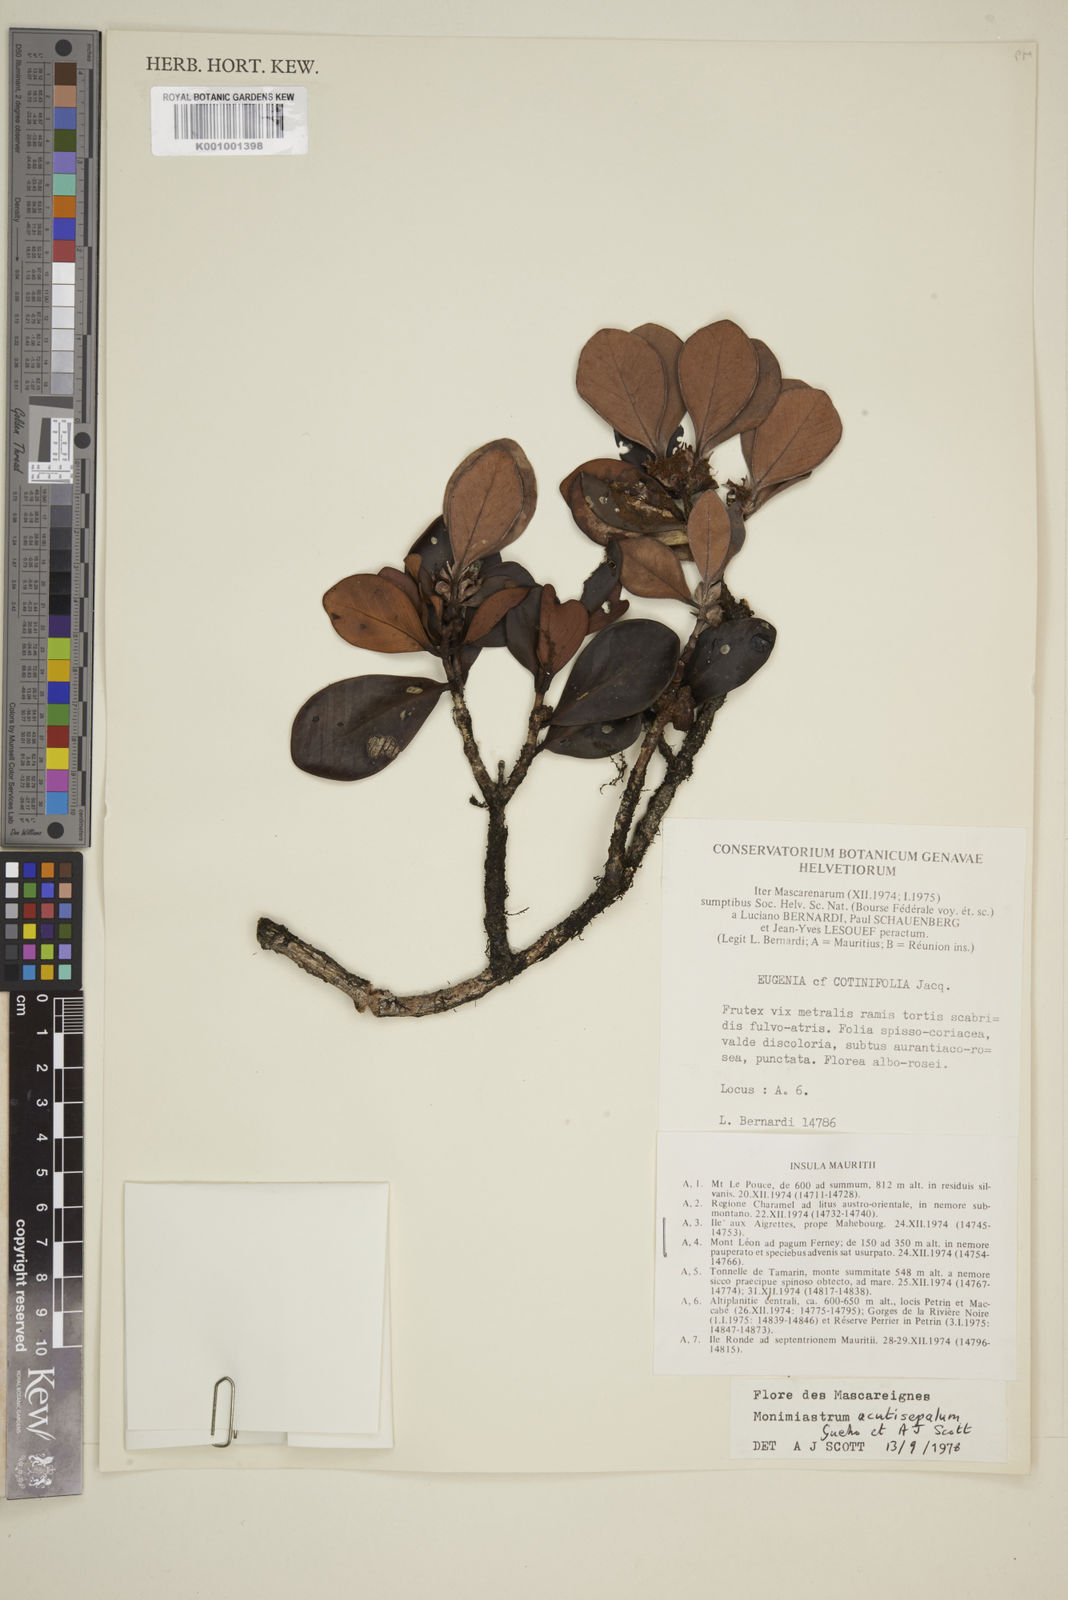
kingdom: Plantae
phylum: Tracheophyta
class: Magnoliopsida
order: Myrtales
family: Myrtaceae
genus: Eugenia
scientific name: Eugenia petrinensis
